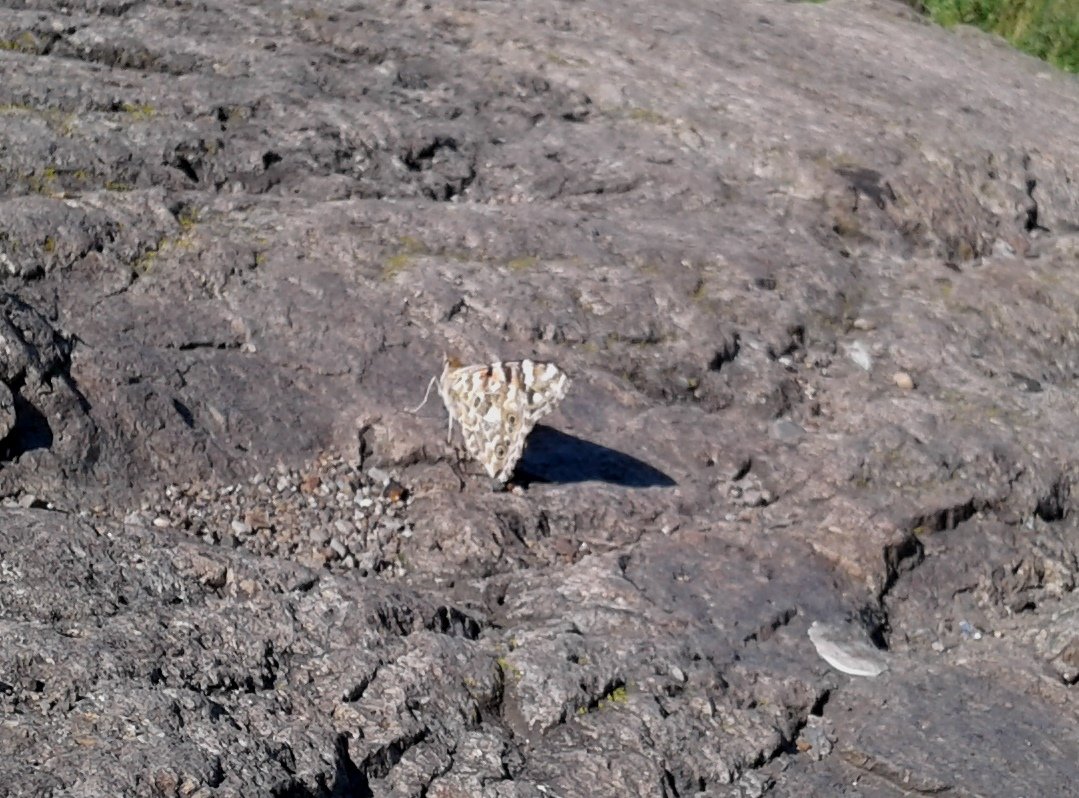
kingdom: Animalia
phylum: Arthropoda
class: Insecta
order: Lepidoptera
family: Nymphalidae
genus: Vanessa
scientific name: Vanessa cardui
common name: Painted Lady
